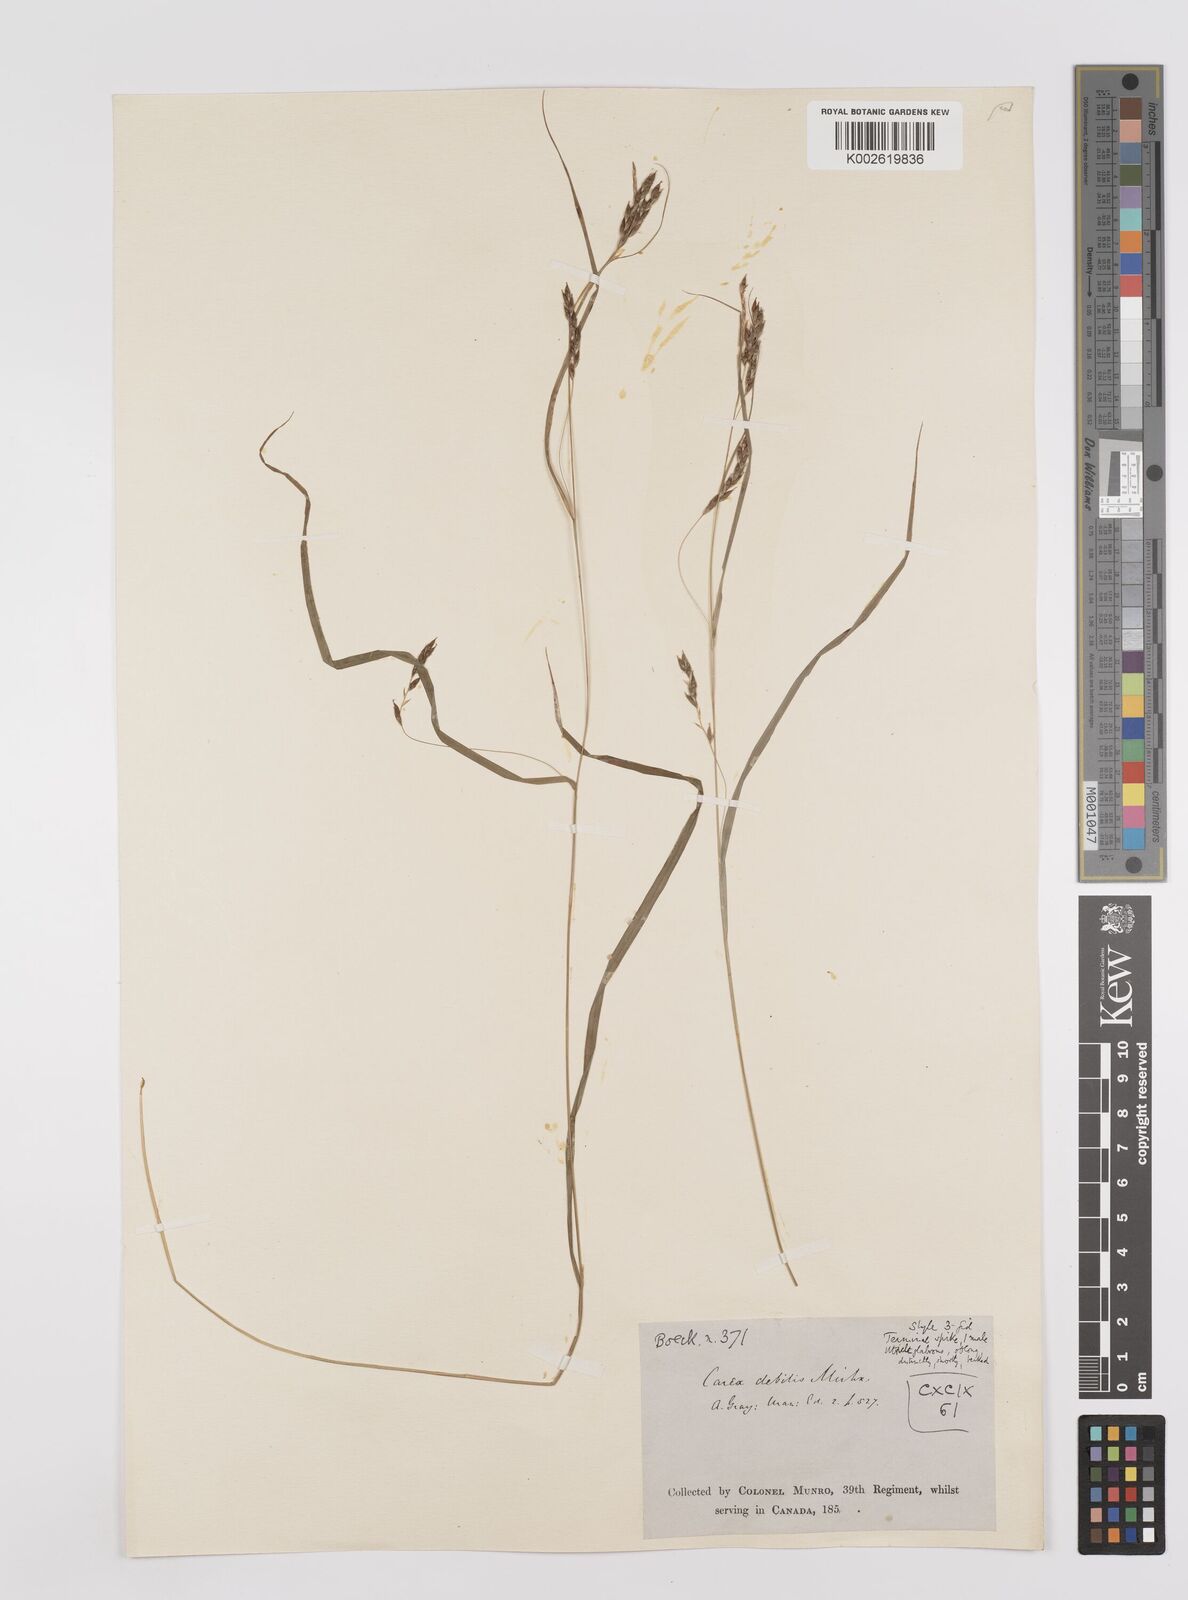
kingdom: Plantae
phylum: Tracheophyta
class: Liliopsida
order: Poales
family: Cyperaceae
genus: Carex
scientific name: Carex debilis
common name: White-edge sedge
